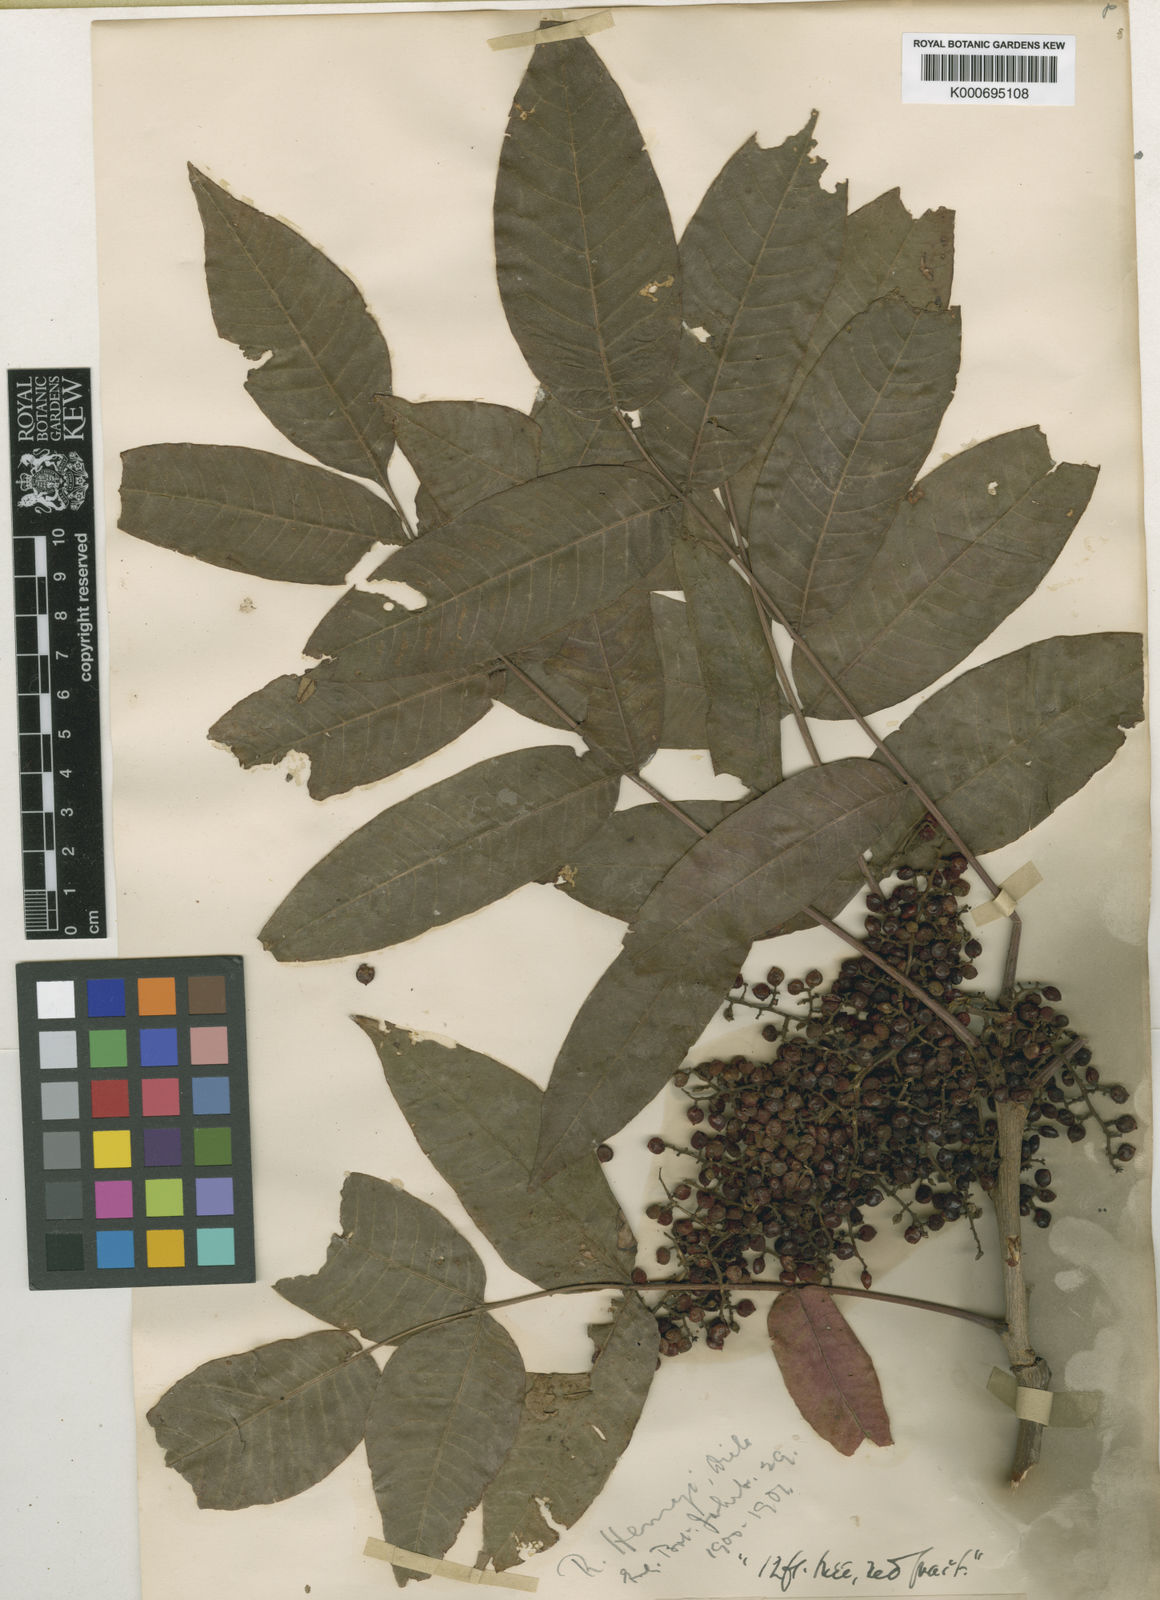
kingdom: Plantae
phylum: Tracheophyta
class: Magnoliopsida
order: Sapindales
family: Anacardiaceae
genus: Rhus
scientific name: Rhus potaninii
